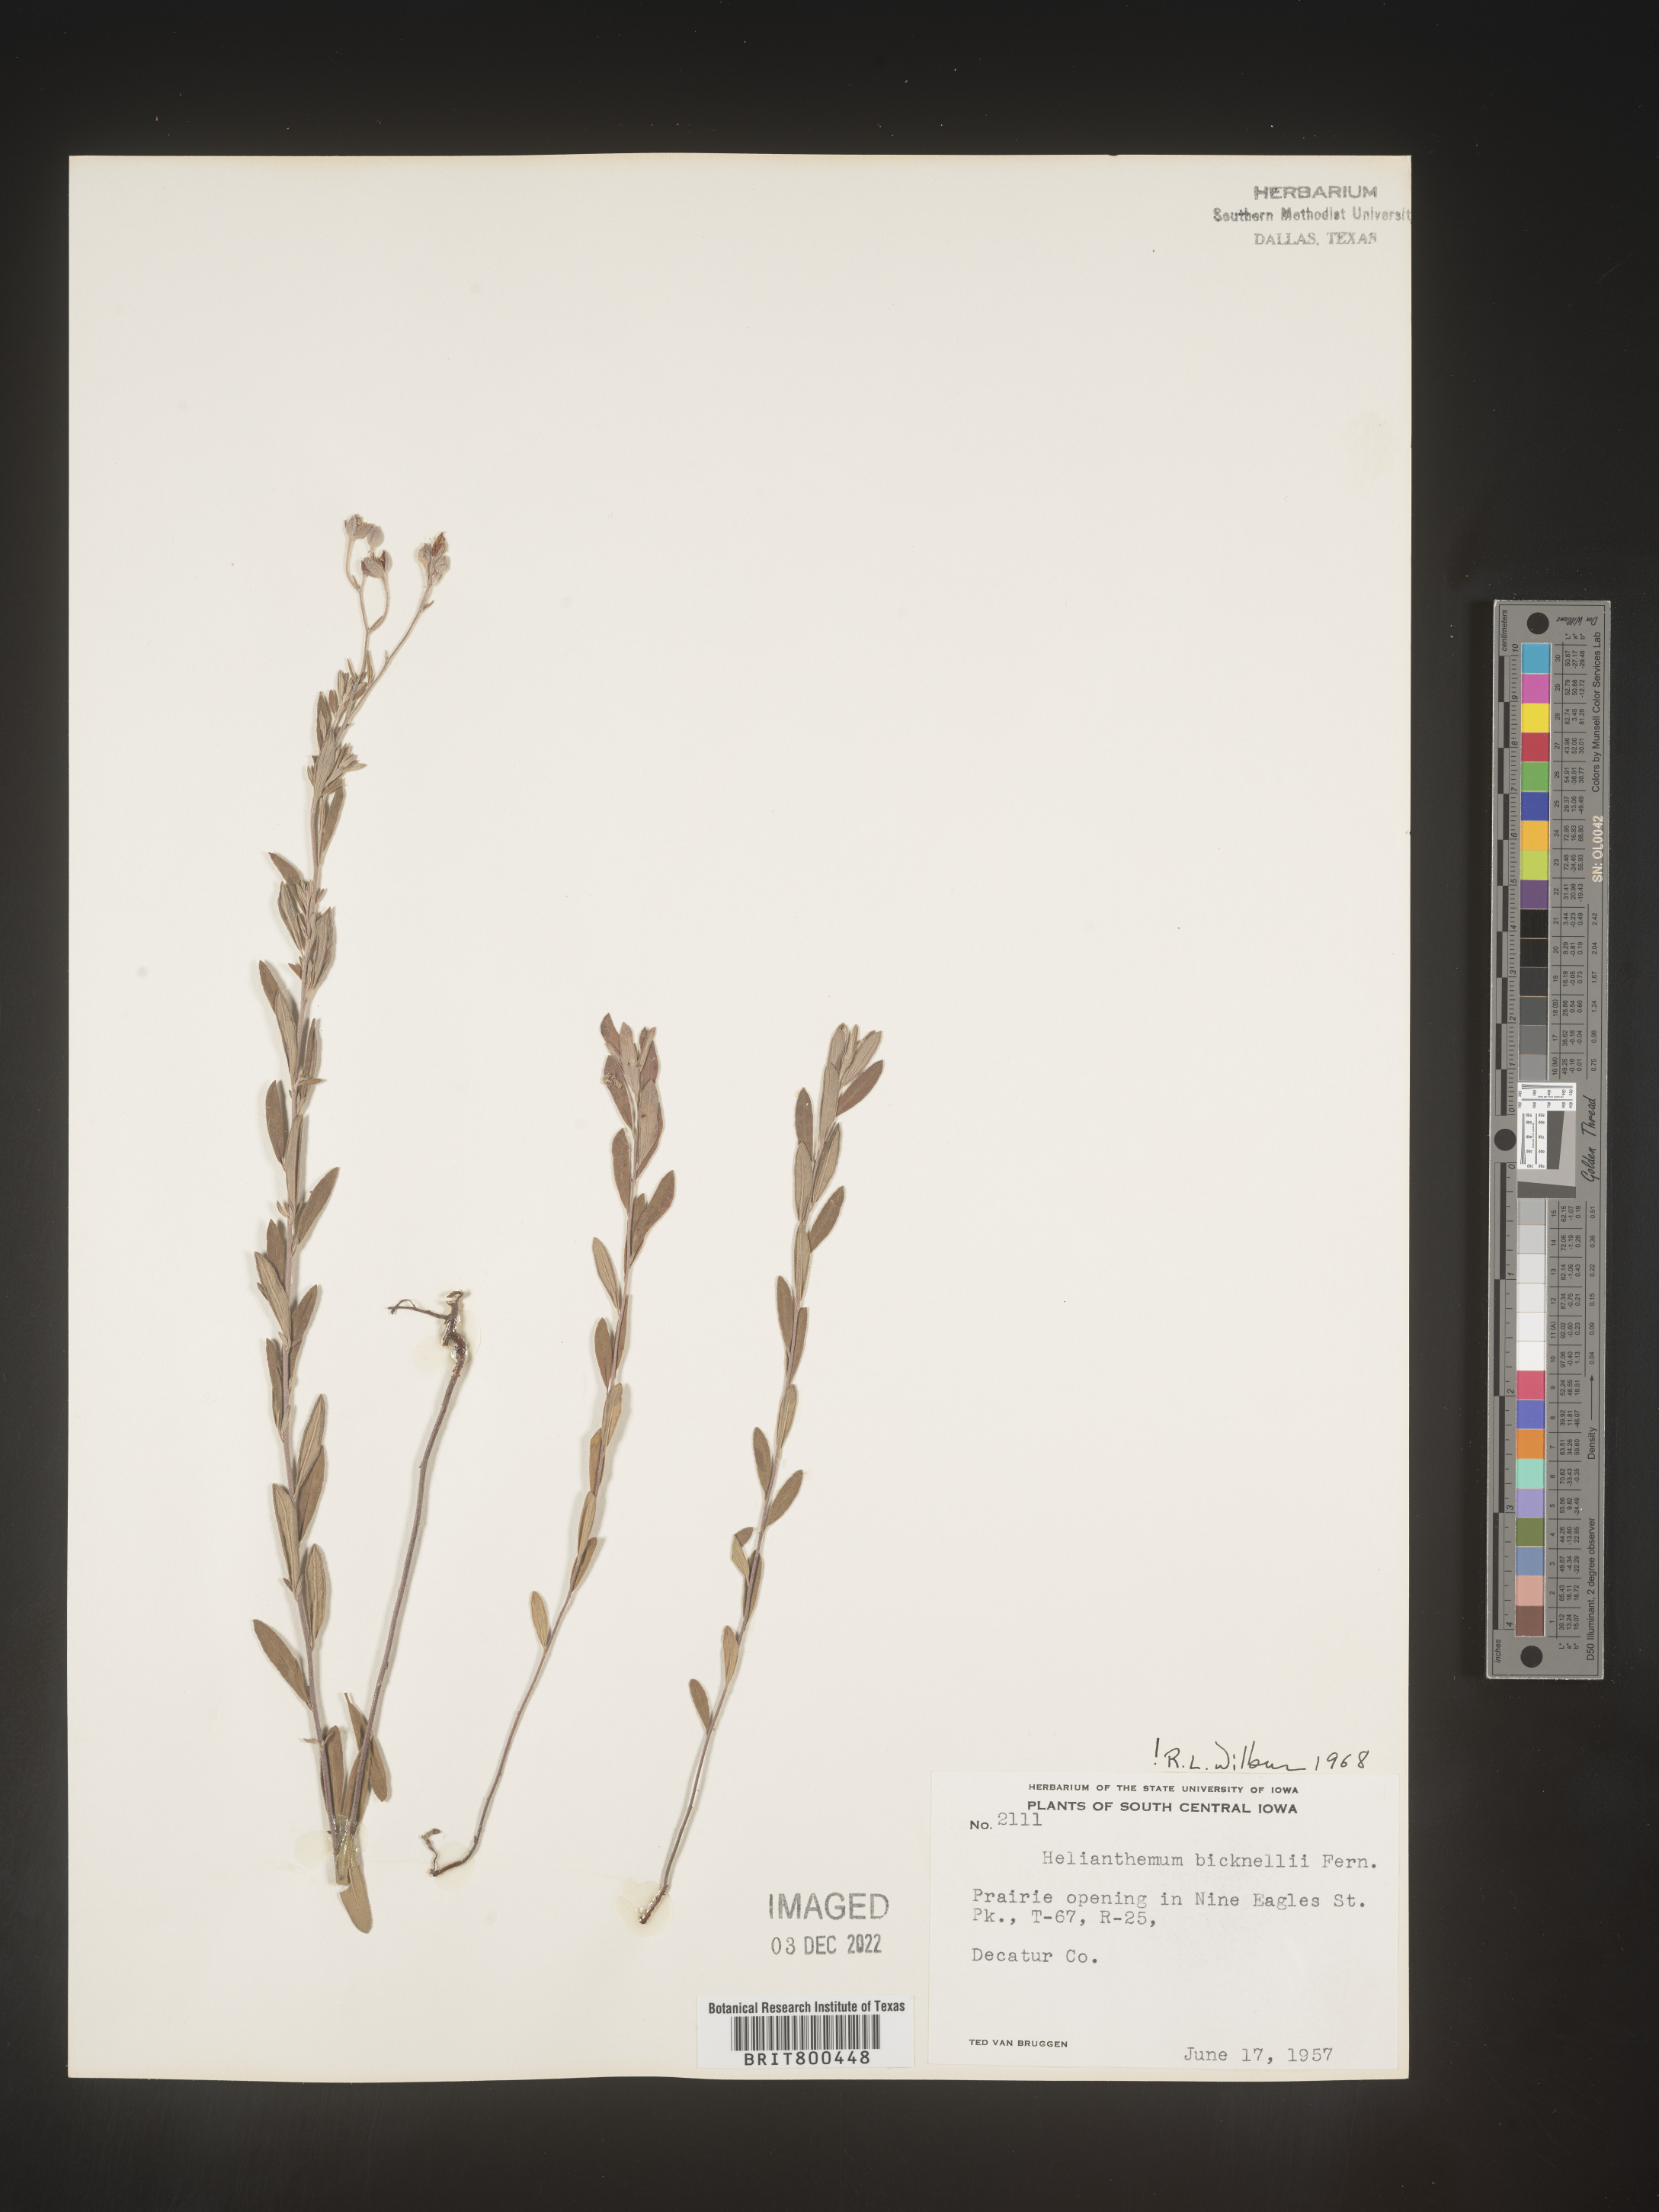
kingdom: Plantae
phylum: Tracheophyta
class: Magnoliopsida
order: Malvales
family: Cistaceae
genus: Helianthemum
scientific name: Helianthemum
